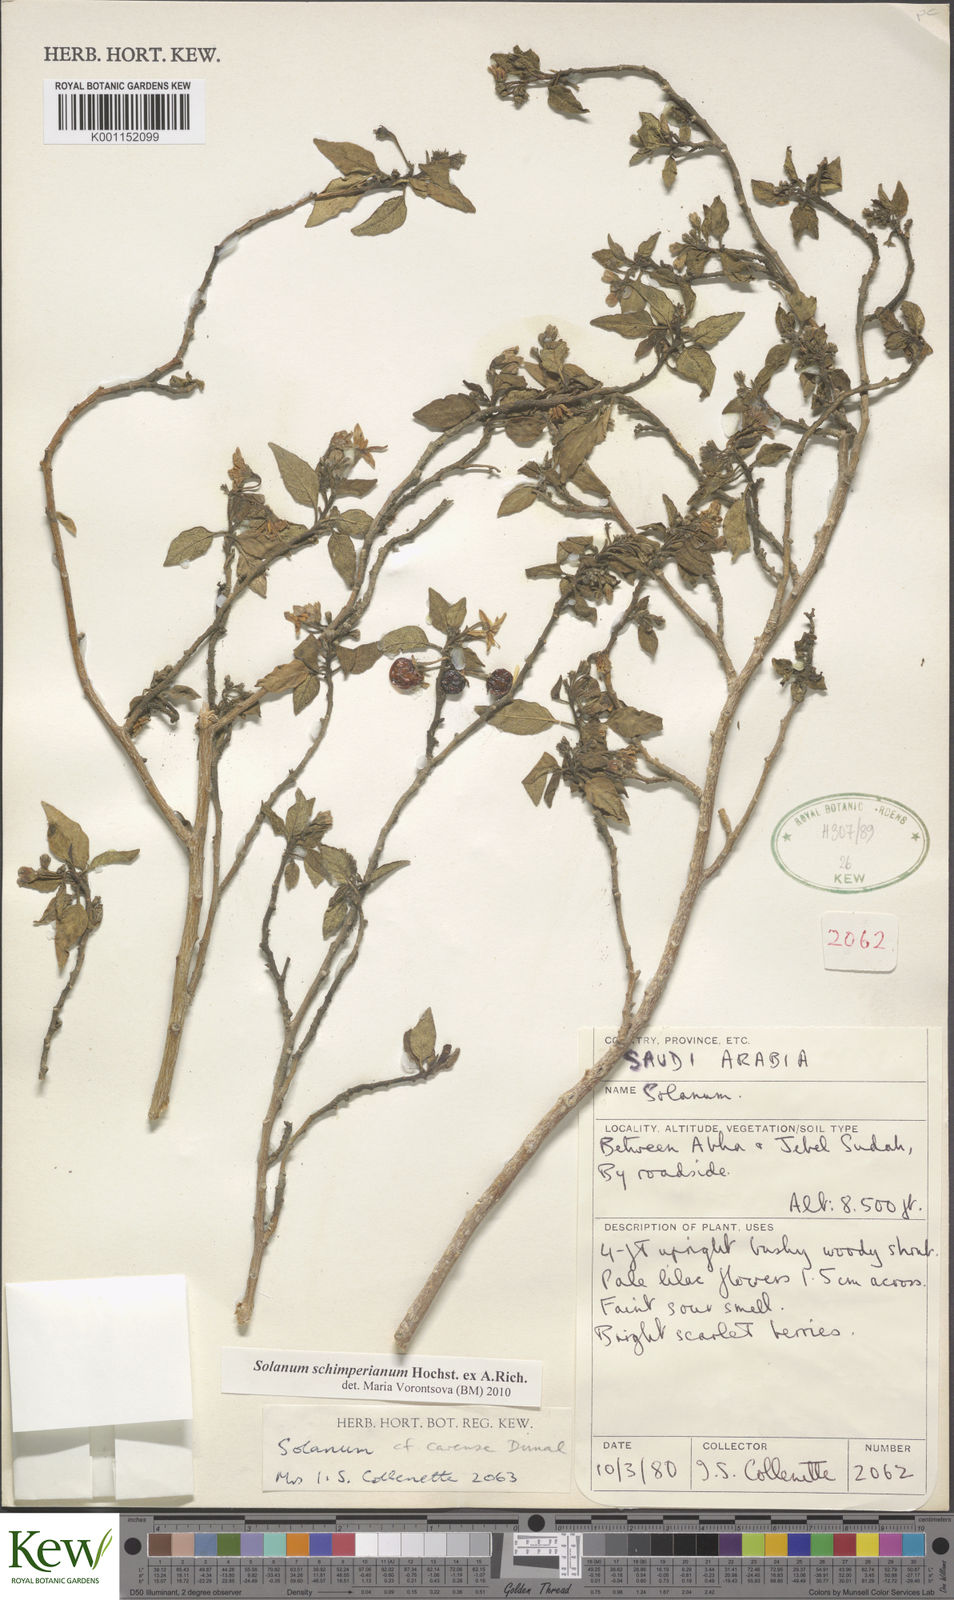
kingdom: Plantae
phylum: Tracheophyta
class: Magnoliopsida
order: Solanales
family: Solanaceae
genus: Solanum
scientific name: Solanum schimperianum
